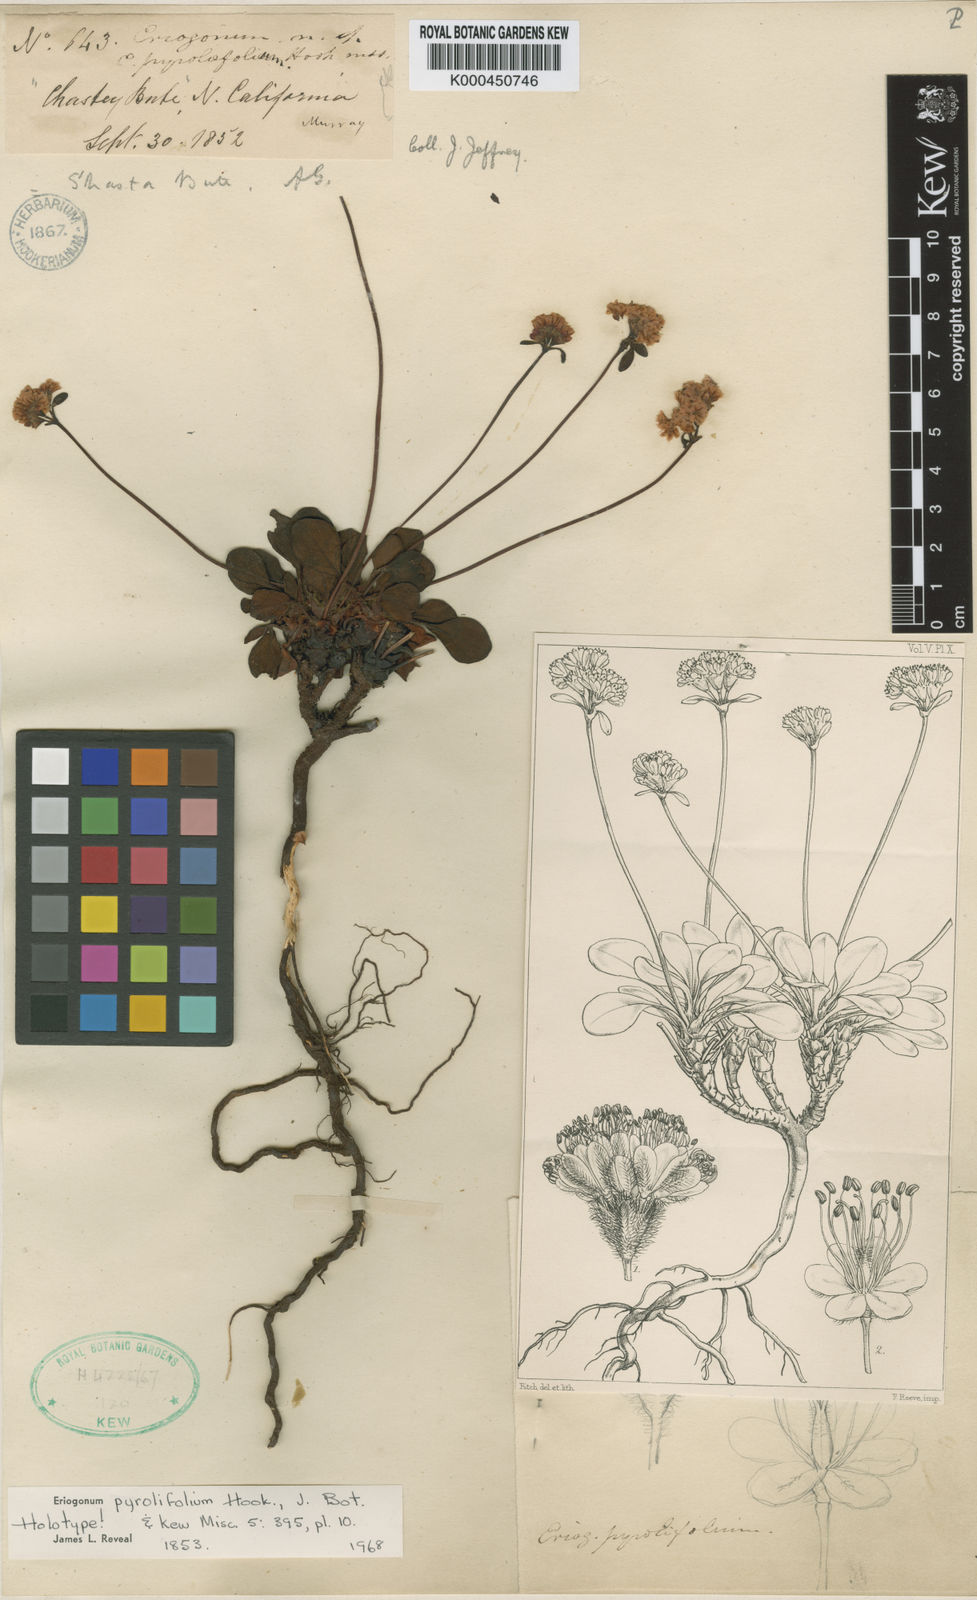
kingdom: Plantae
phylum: Tracheophyta
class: Magnoliopsida
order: Caryophyllales
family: Polygonaceae
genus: Eriogonum
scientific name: Eriogonum pyrolifolium
